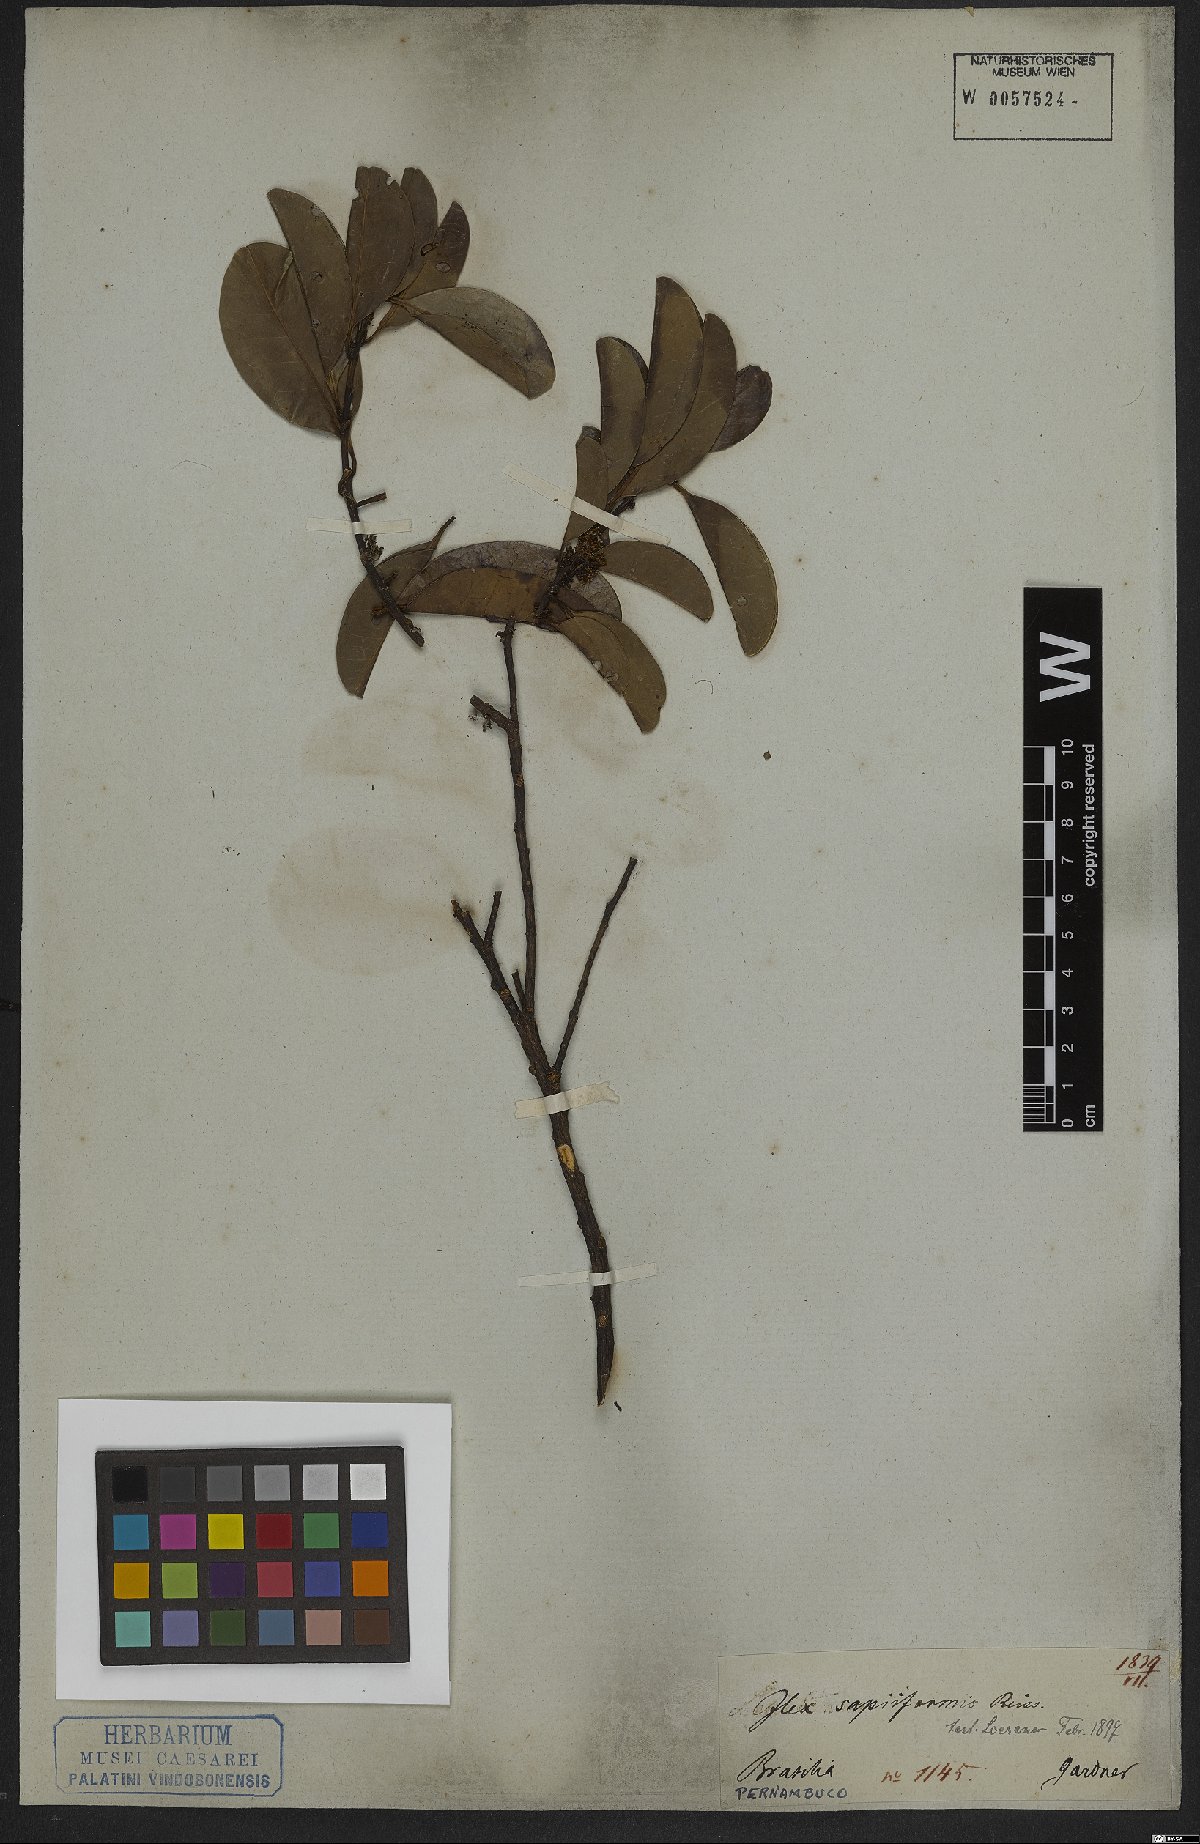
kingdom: Plantae
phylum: Tracheophyta
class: Magnoliopsida
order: Aquifoliales
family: Aquifoliaceae
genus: Ilex
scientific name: Ilex sapiiformis
